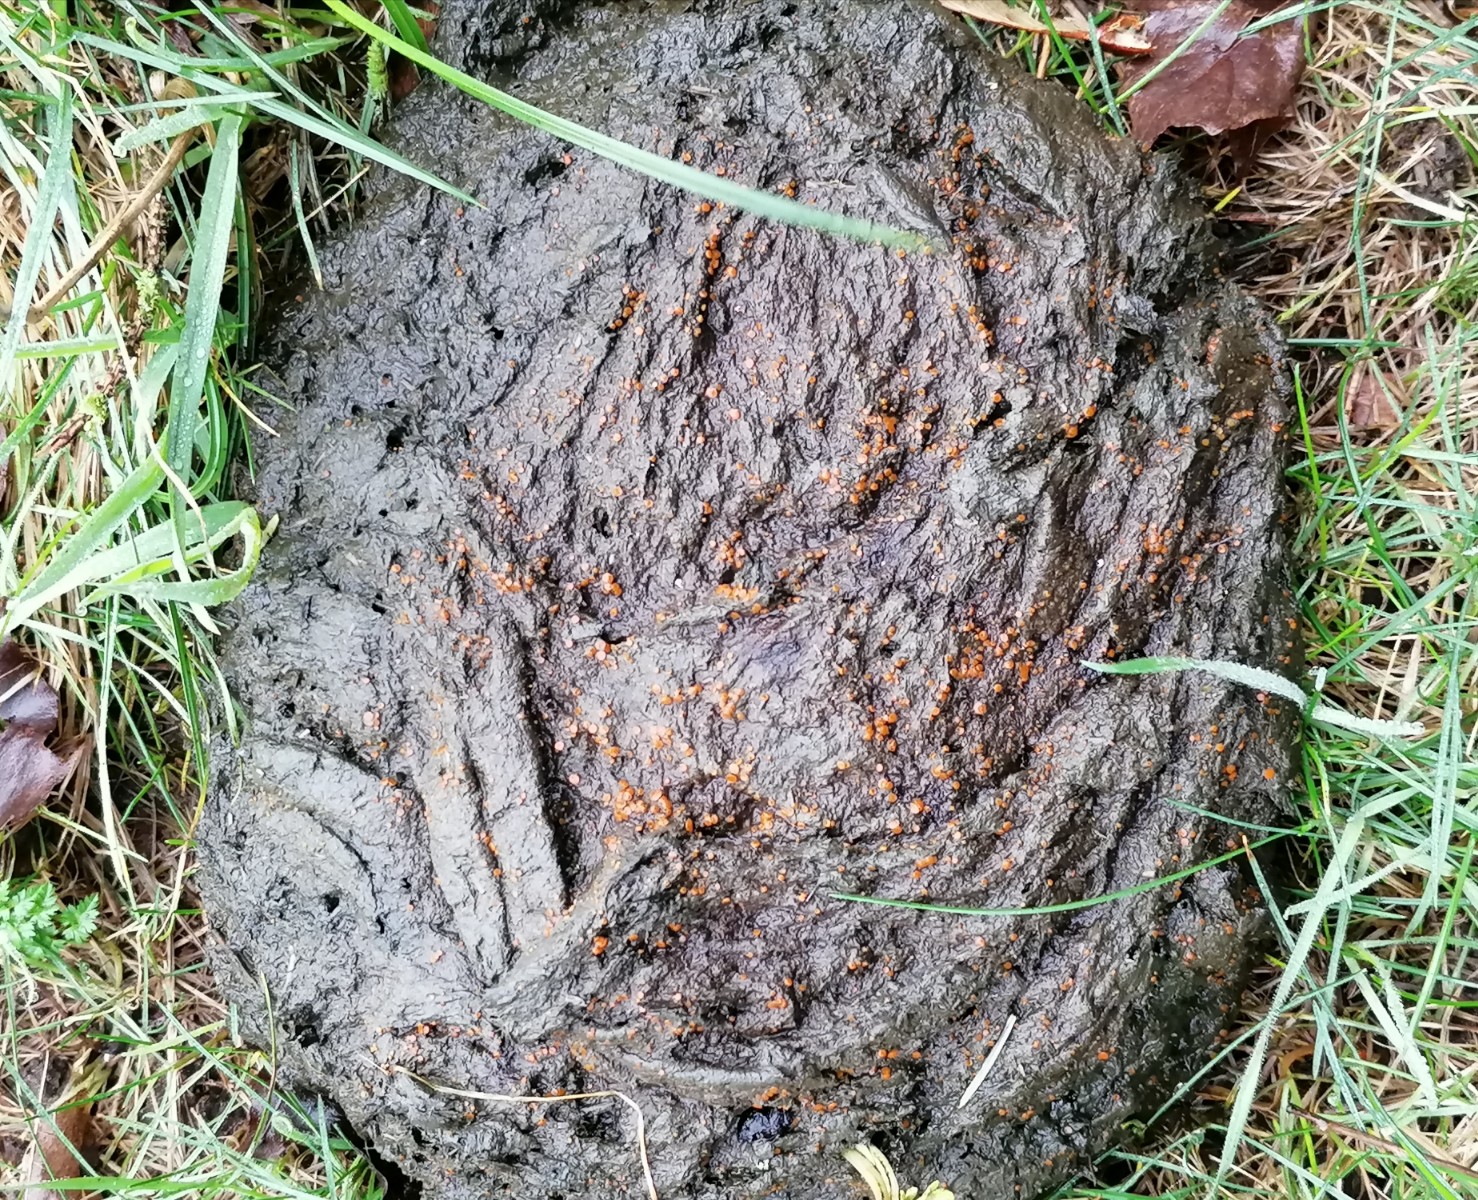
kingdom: Fungi
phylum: Ascomycota
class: Pezizomycetes
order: Pezizales
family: Pyronemataceae
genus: Cheilymenia
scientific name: Cheilymenia granulata
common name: møgbæger
